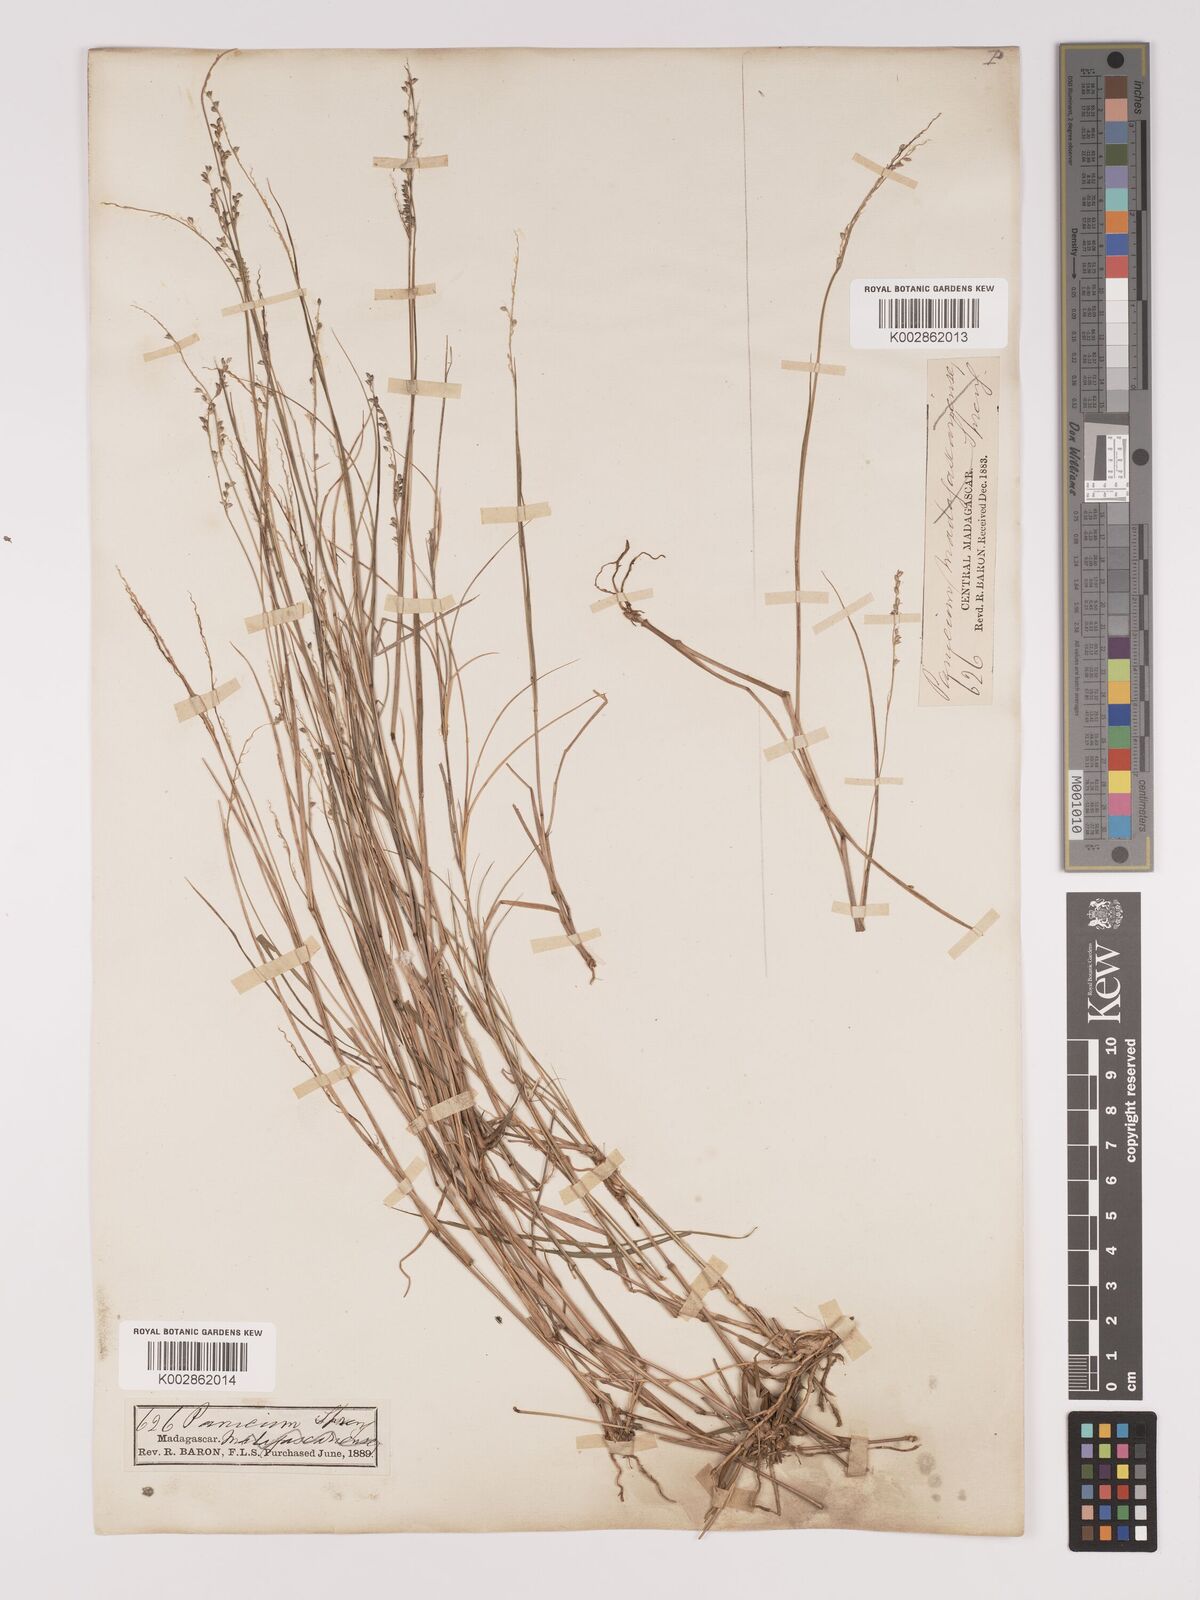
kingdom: Plantae
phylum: Tracheophyta
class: Liliopsida
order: Poales
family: Poaceae
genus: Setaria
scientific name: Setaria scottii
